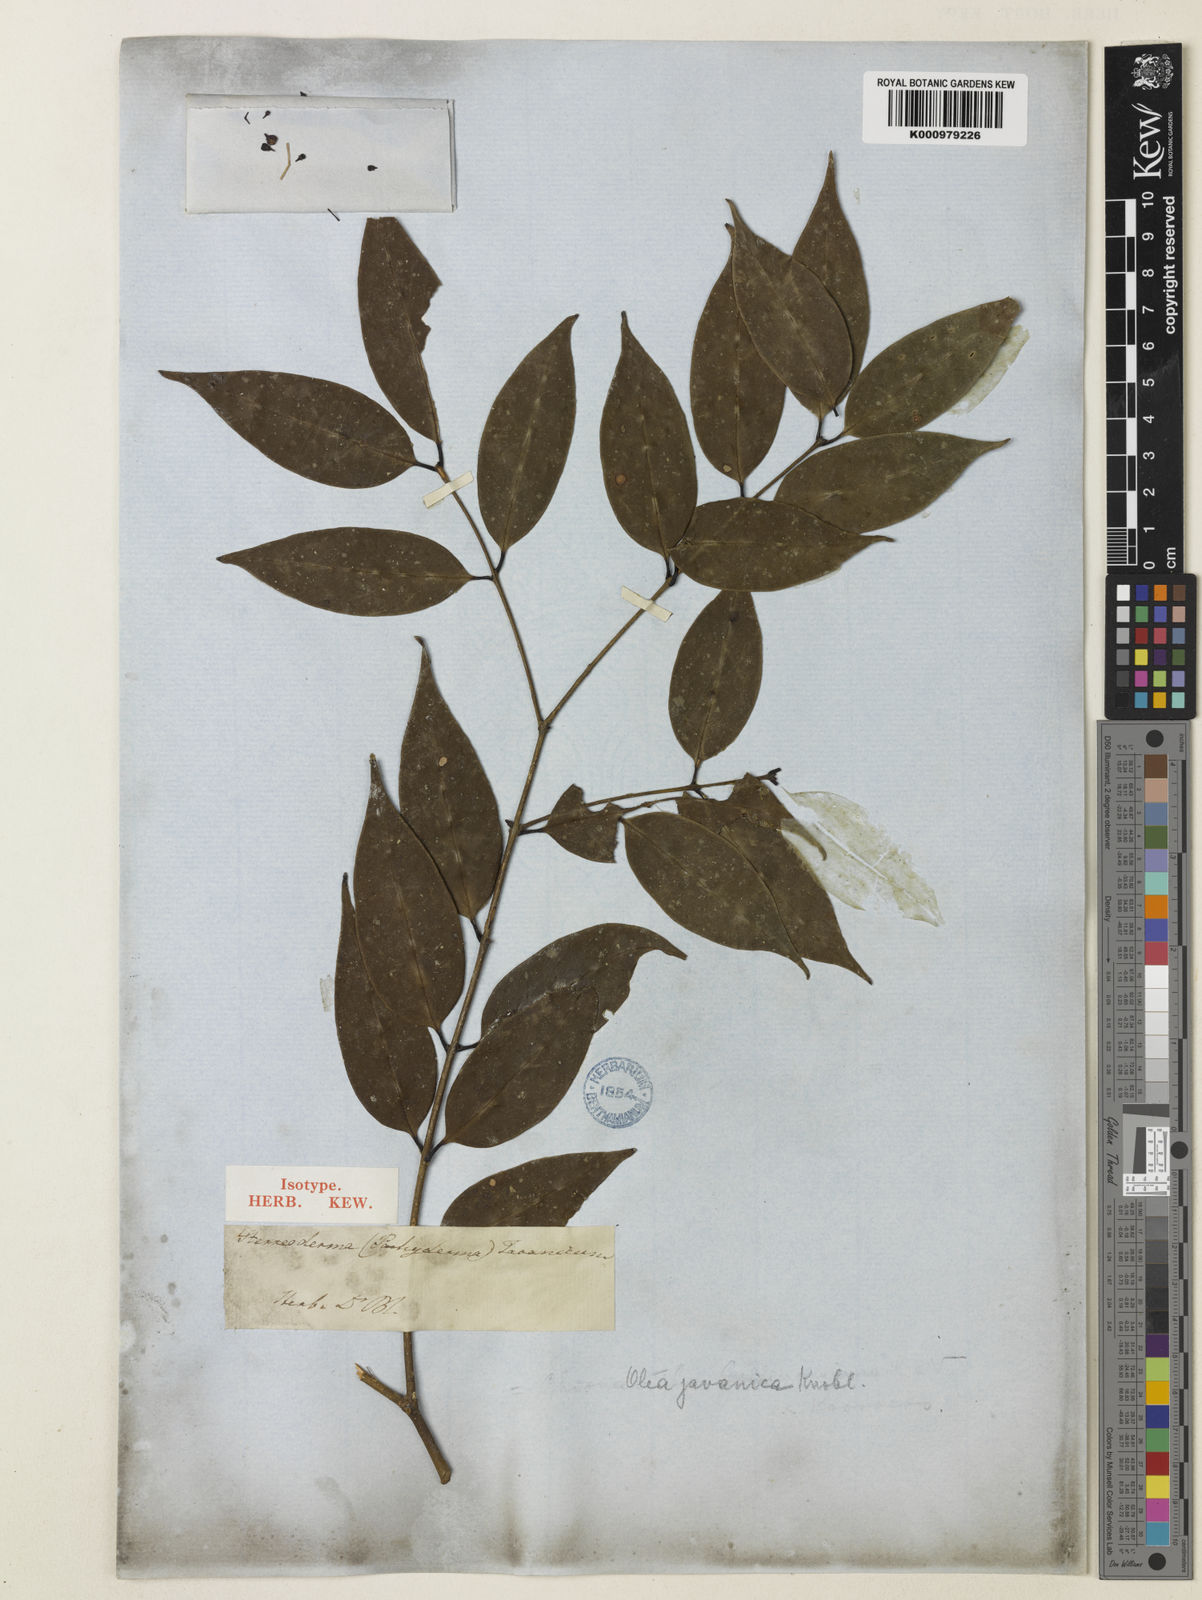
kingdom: Plantae
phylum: Tracheophyta
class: Magnoliopsida
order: Lamiales
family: Oleaceae
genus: Tetrapilus
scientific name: Tetrapilus javanicus
